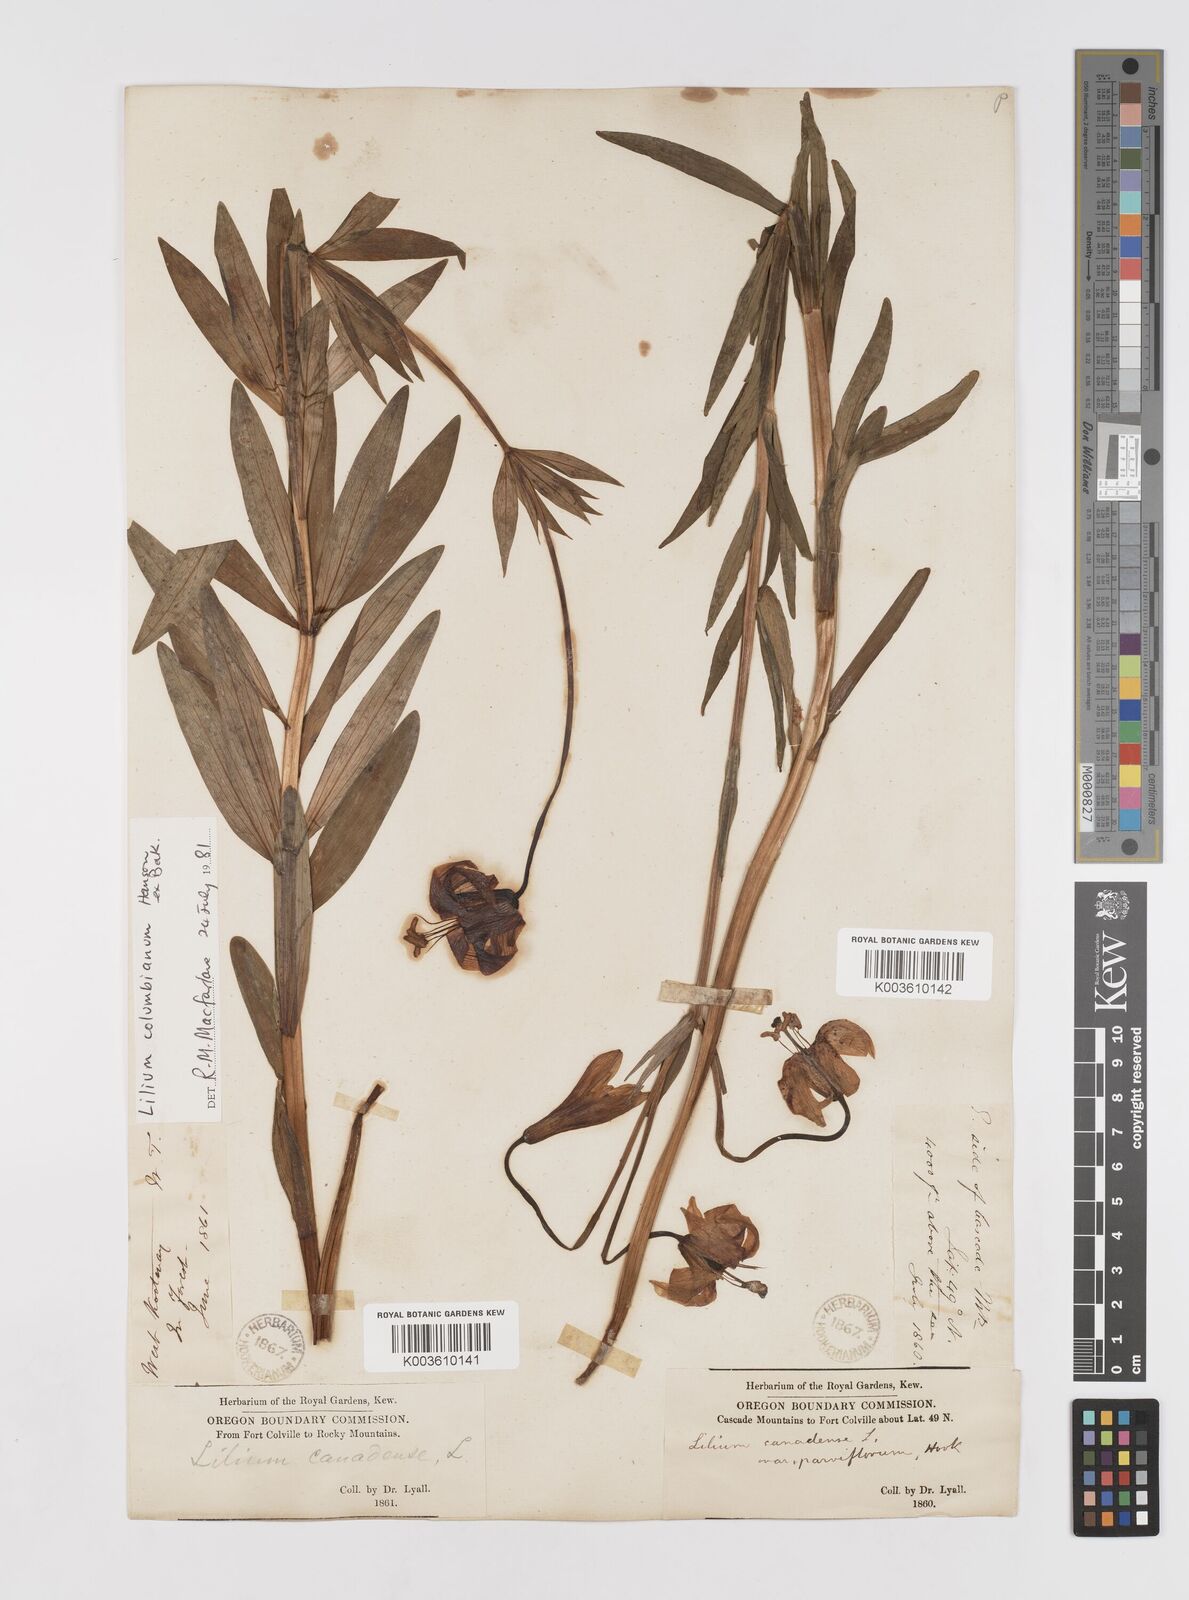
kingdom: Plantae
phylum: Tracheophyta
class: Liliopsida
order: Liliales
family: Liliaceae
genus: Lilium
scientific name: Lilium columbianum
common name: Columbia lily
